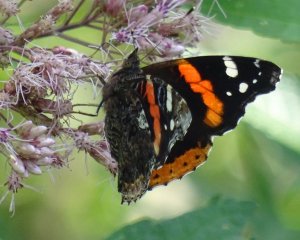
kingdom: Animalia
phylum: Arthropoda
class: Insecta
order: Lepidoptera
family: Nymphalidae
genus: Vanessa
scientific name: Vanessa atalanta
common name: Red Admiral
